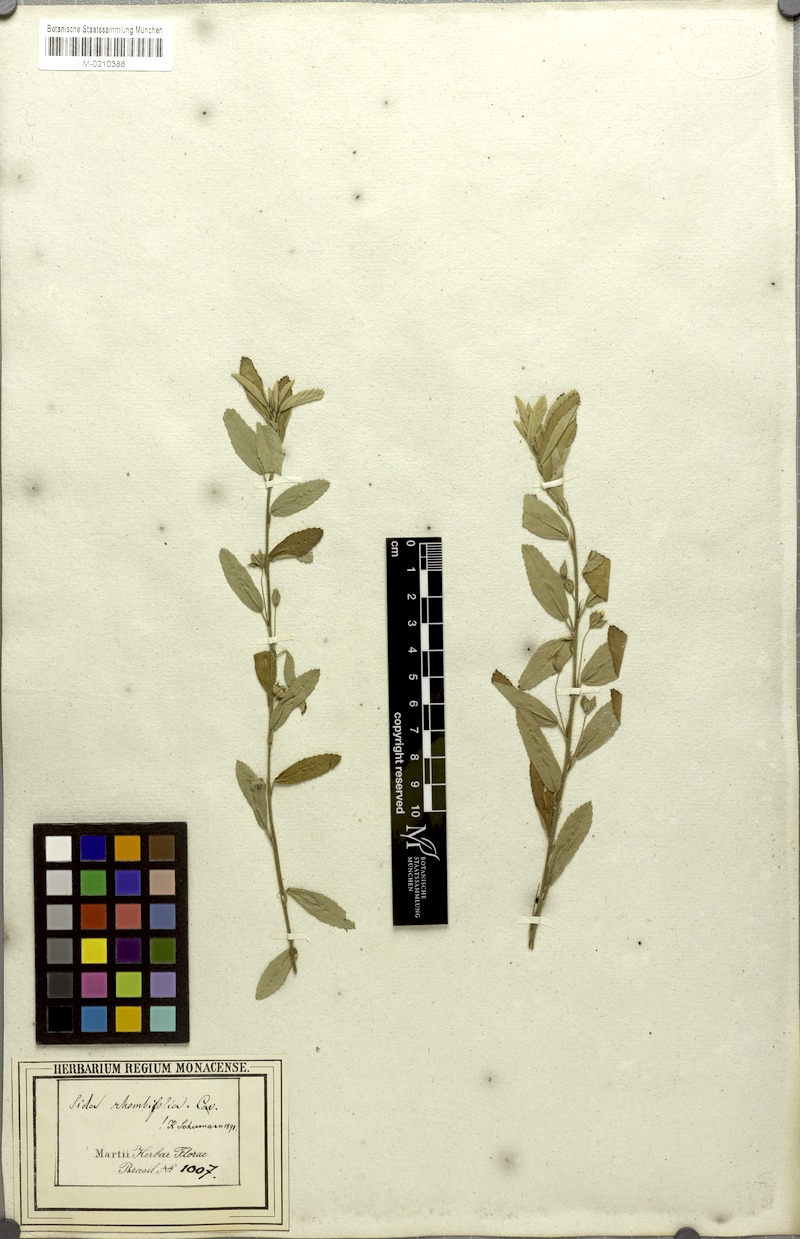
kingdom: Plantae
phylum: Tracheophyta
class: Magnoliopsida
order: Malvales
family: Malvaceae
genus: Sida
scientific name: Sida rhombifolia
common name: Queensland-hemp
